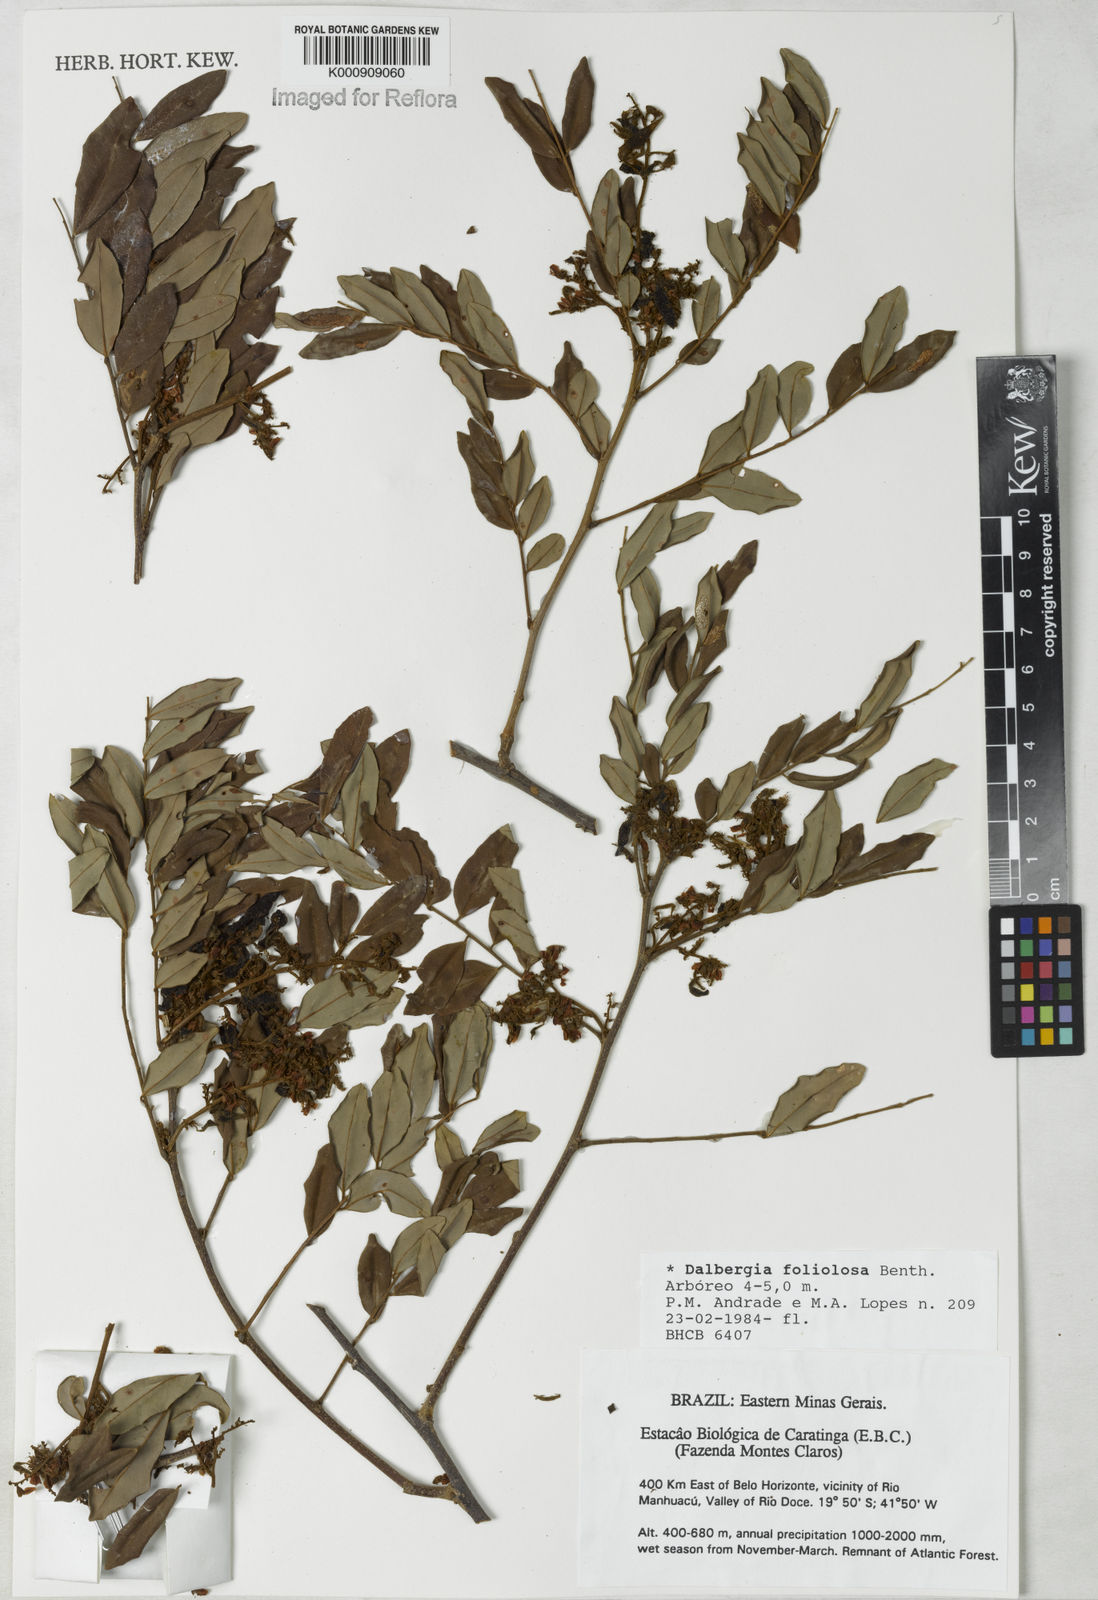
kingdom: Plantae
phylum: Tracheophyta
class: Magnoliopsida
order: Fabales
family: Fabaceae
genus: Dalbergia
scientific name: Dalbergia foliolosa
